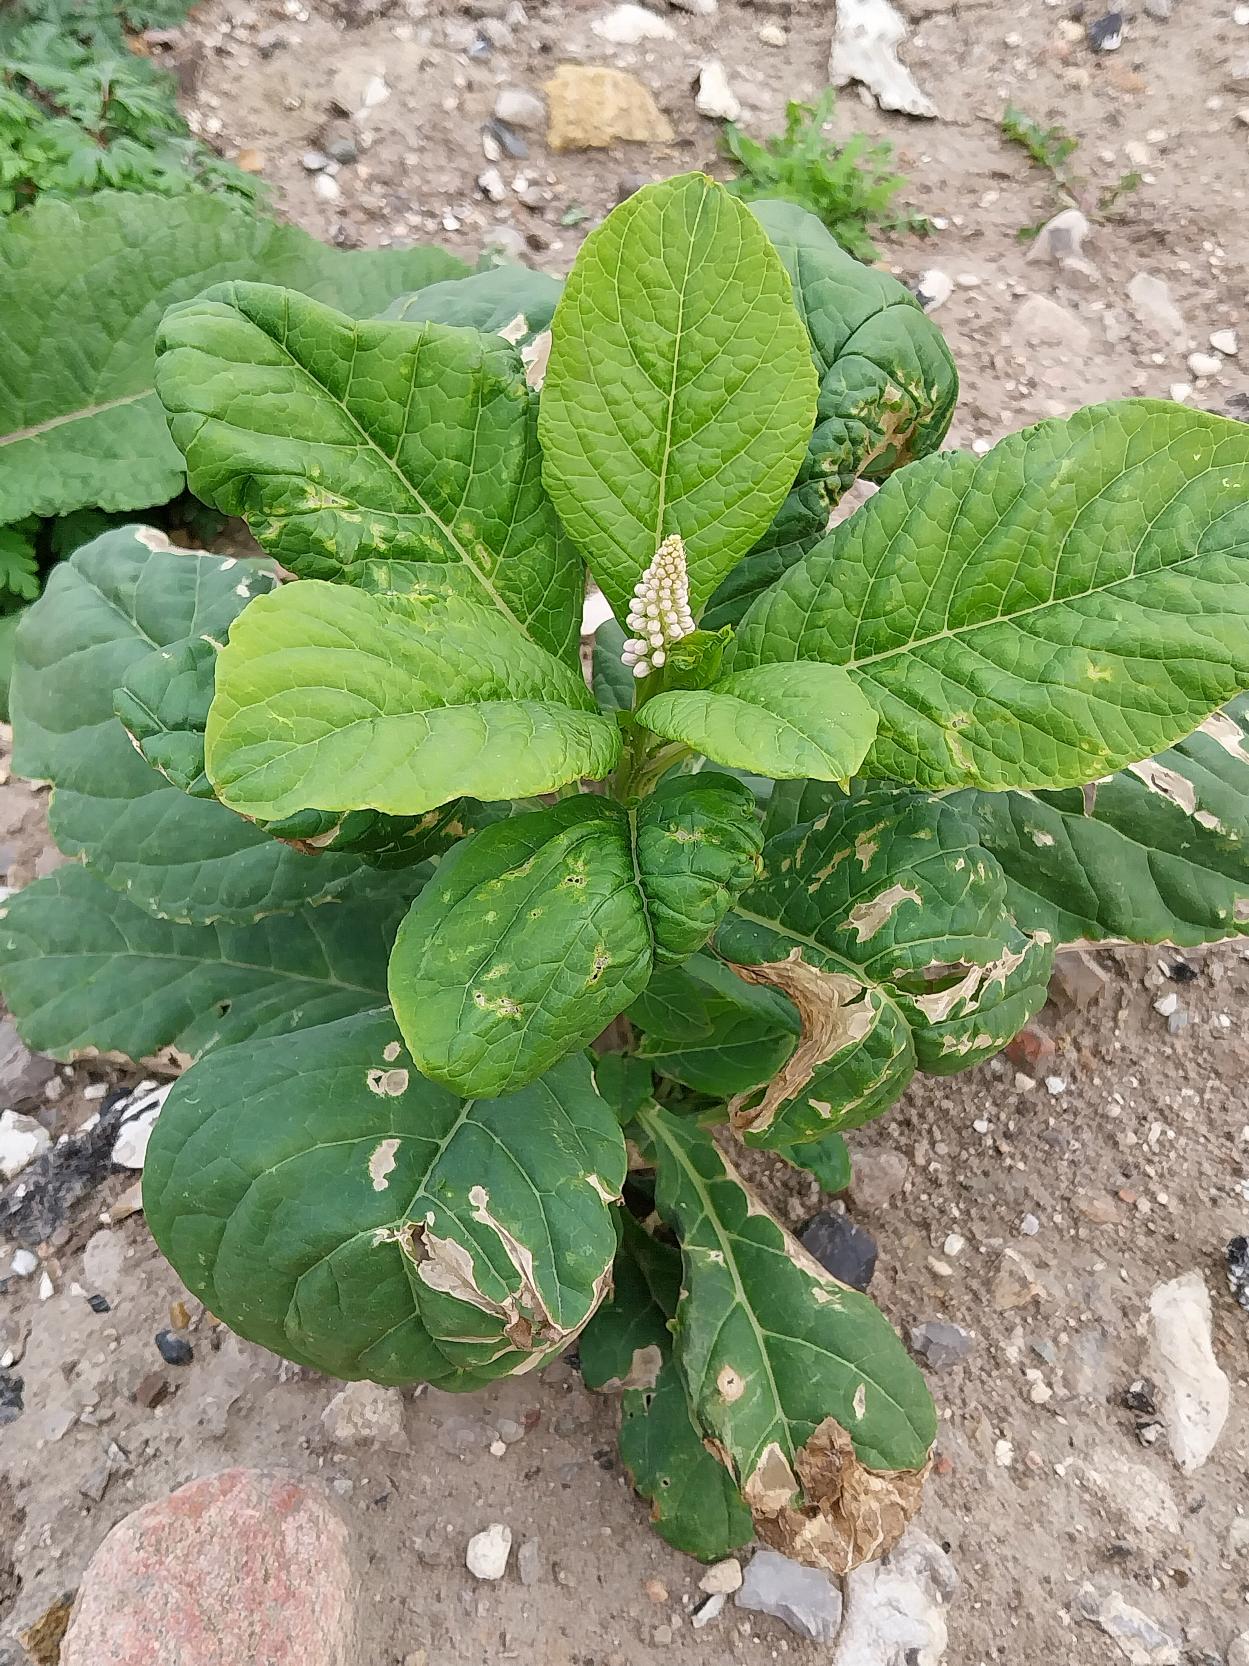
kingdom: Plantae
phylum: Tracheophyta
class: Magnoliopsida
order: Caryophyllales
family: Phytolaccaceae
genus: Phytolacca
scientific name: Phytolacca acinosa
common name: Asiatisk kermesbær
